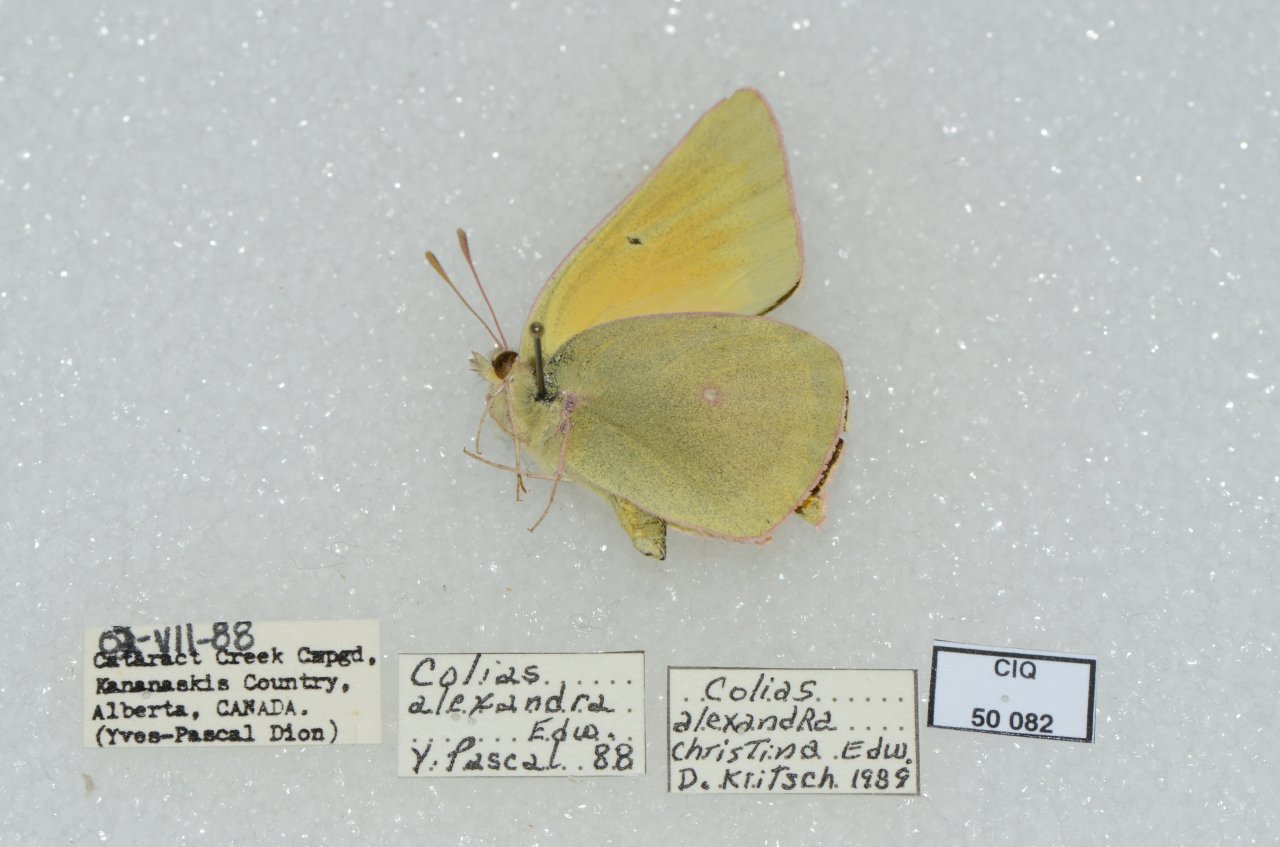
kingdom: Animalia
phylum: Arthropoda
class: Insecta
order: Lepidoptera
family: Pieridae
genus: Colias
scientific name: Colias alexandra
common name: Queen Alexandra's Sulphur
